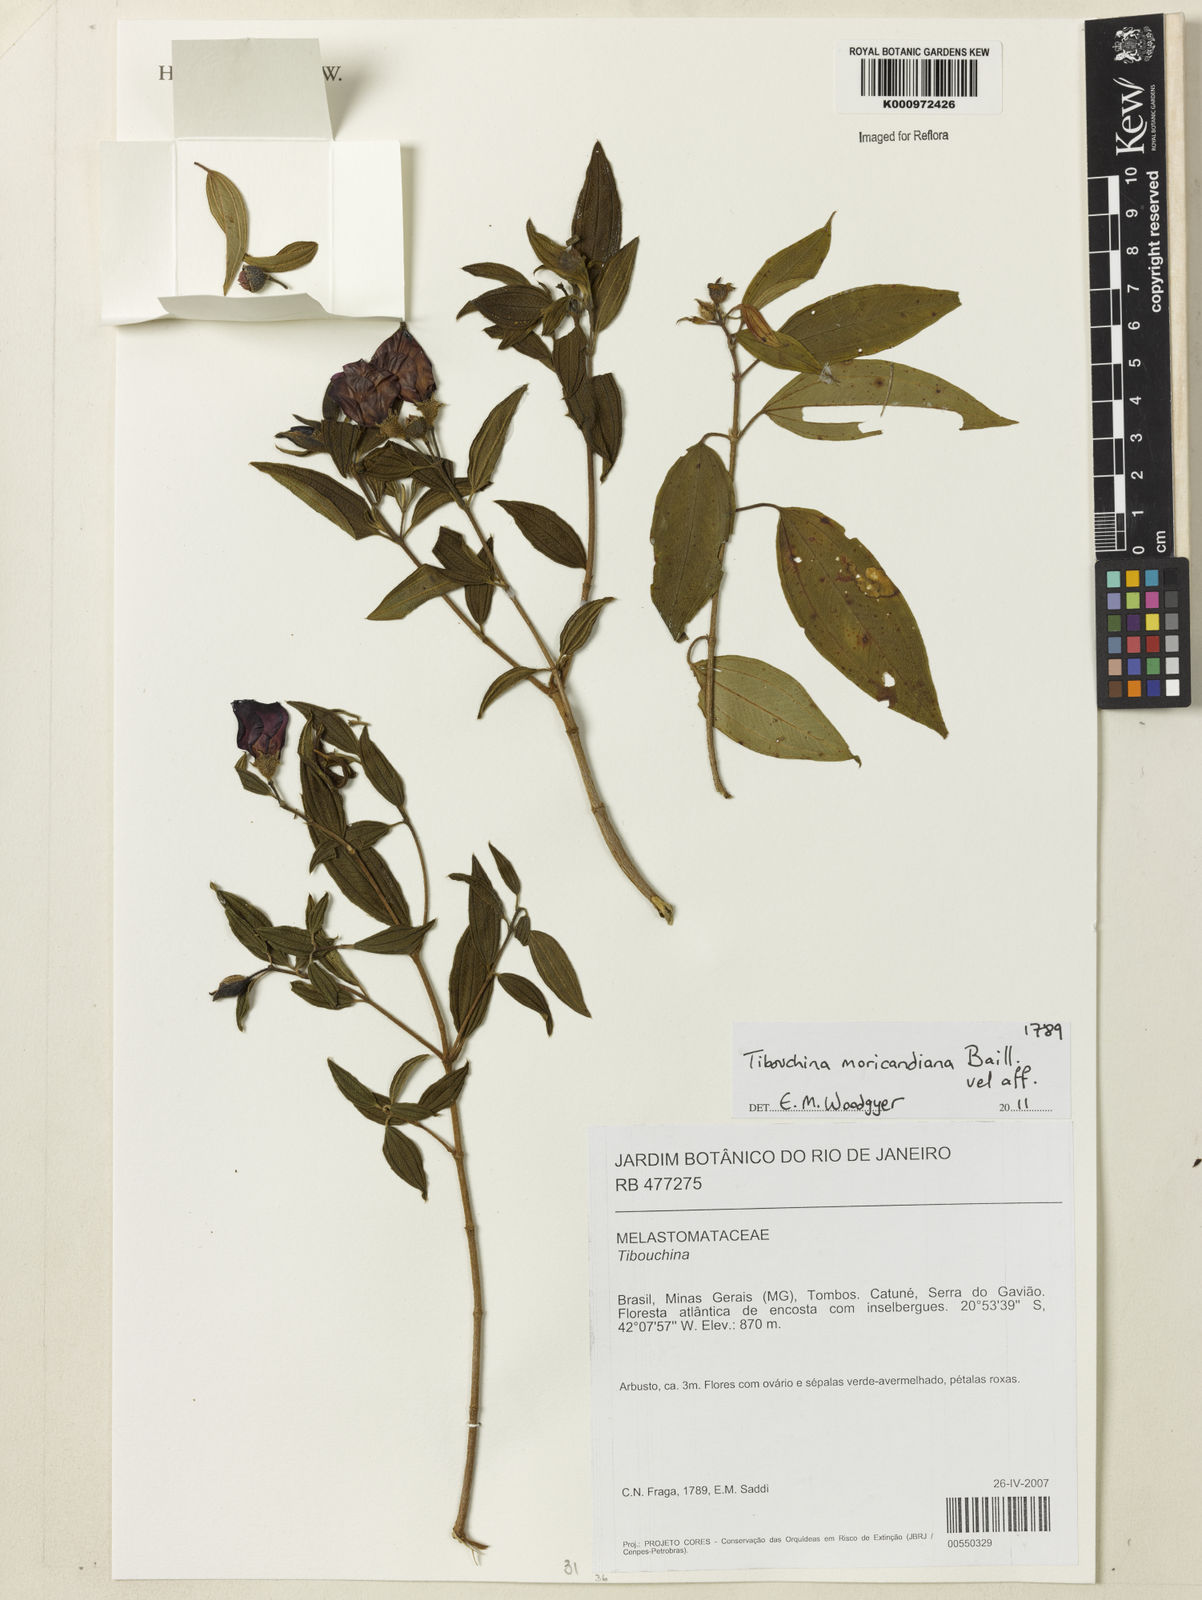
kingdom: Plantae
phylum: Tracheophyta
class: Magnoliopsida
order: Myrtales
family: Melastomataceae
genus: Pleroma
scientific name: Pleroma gaudichaudianum
